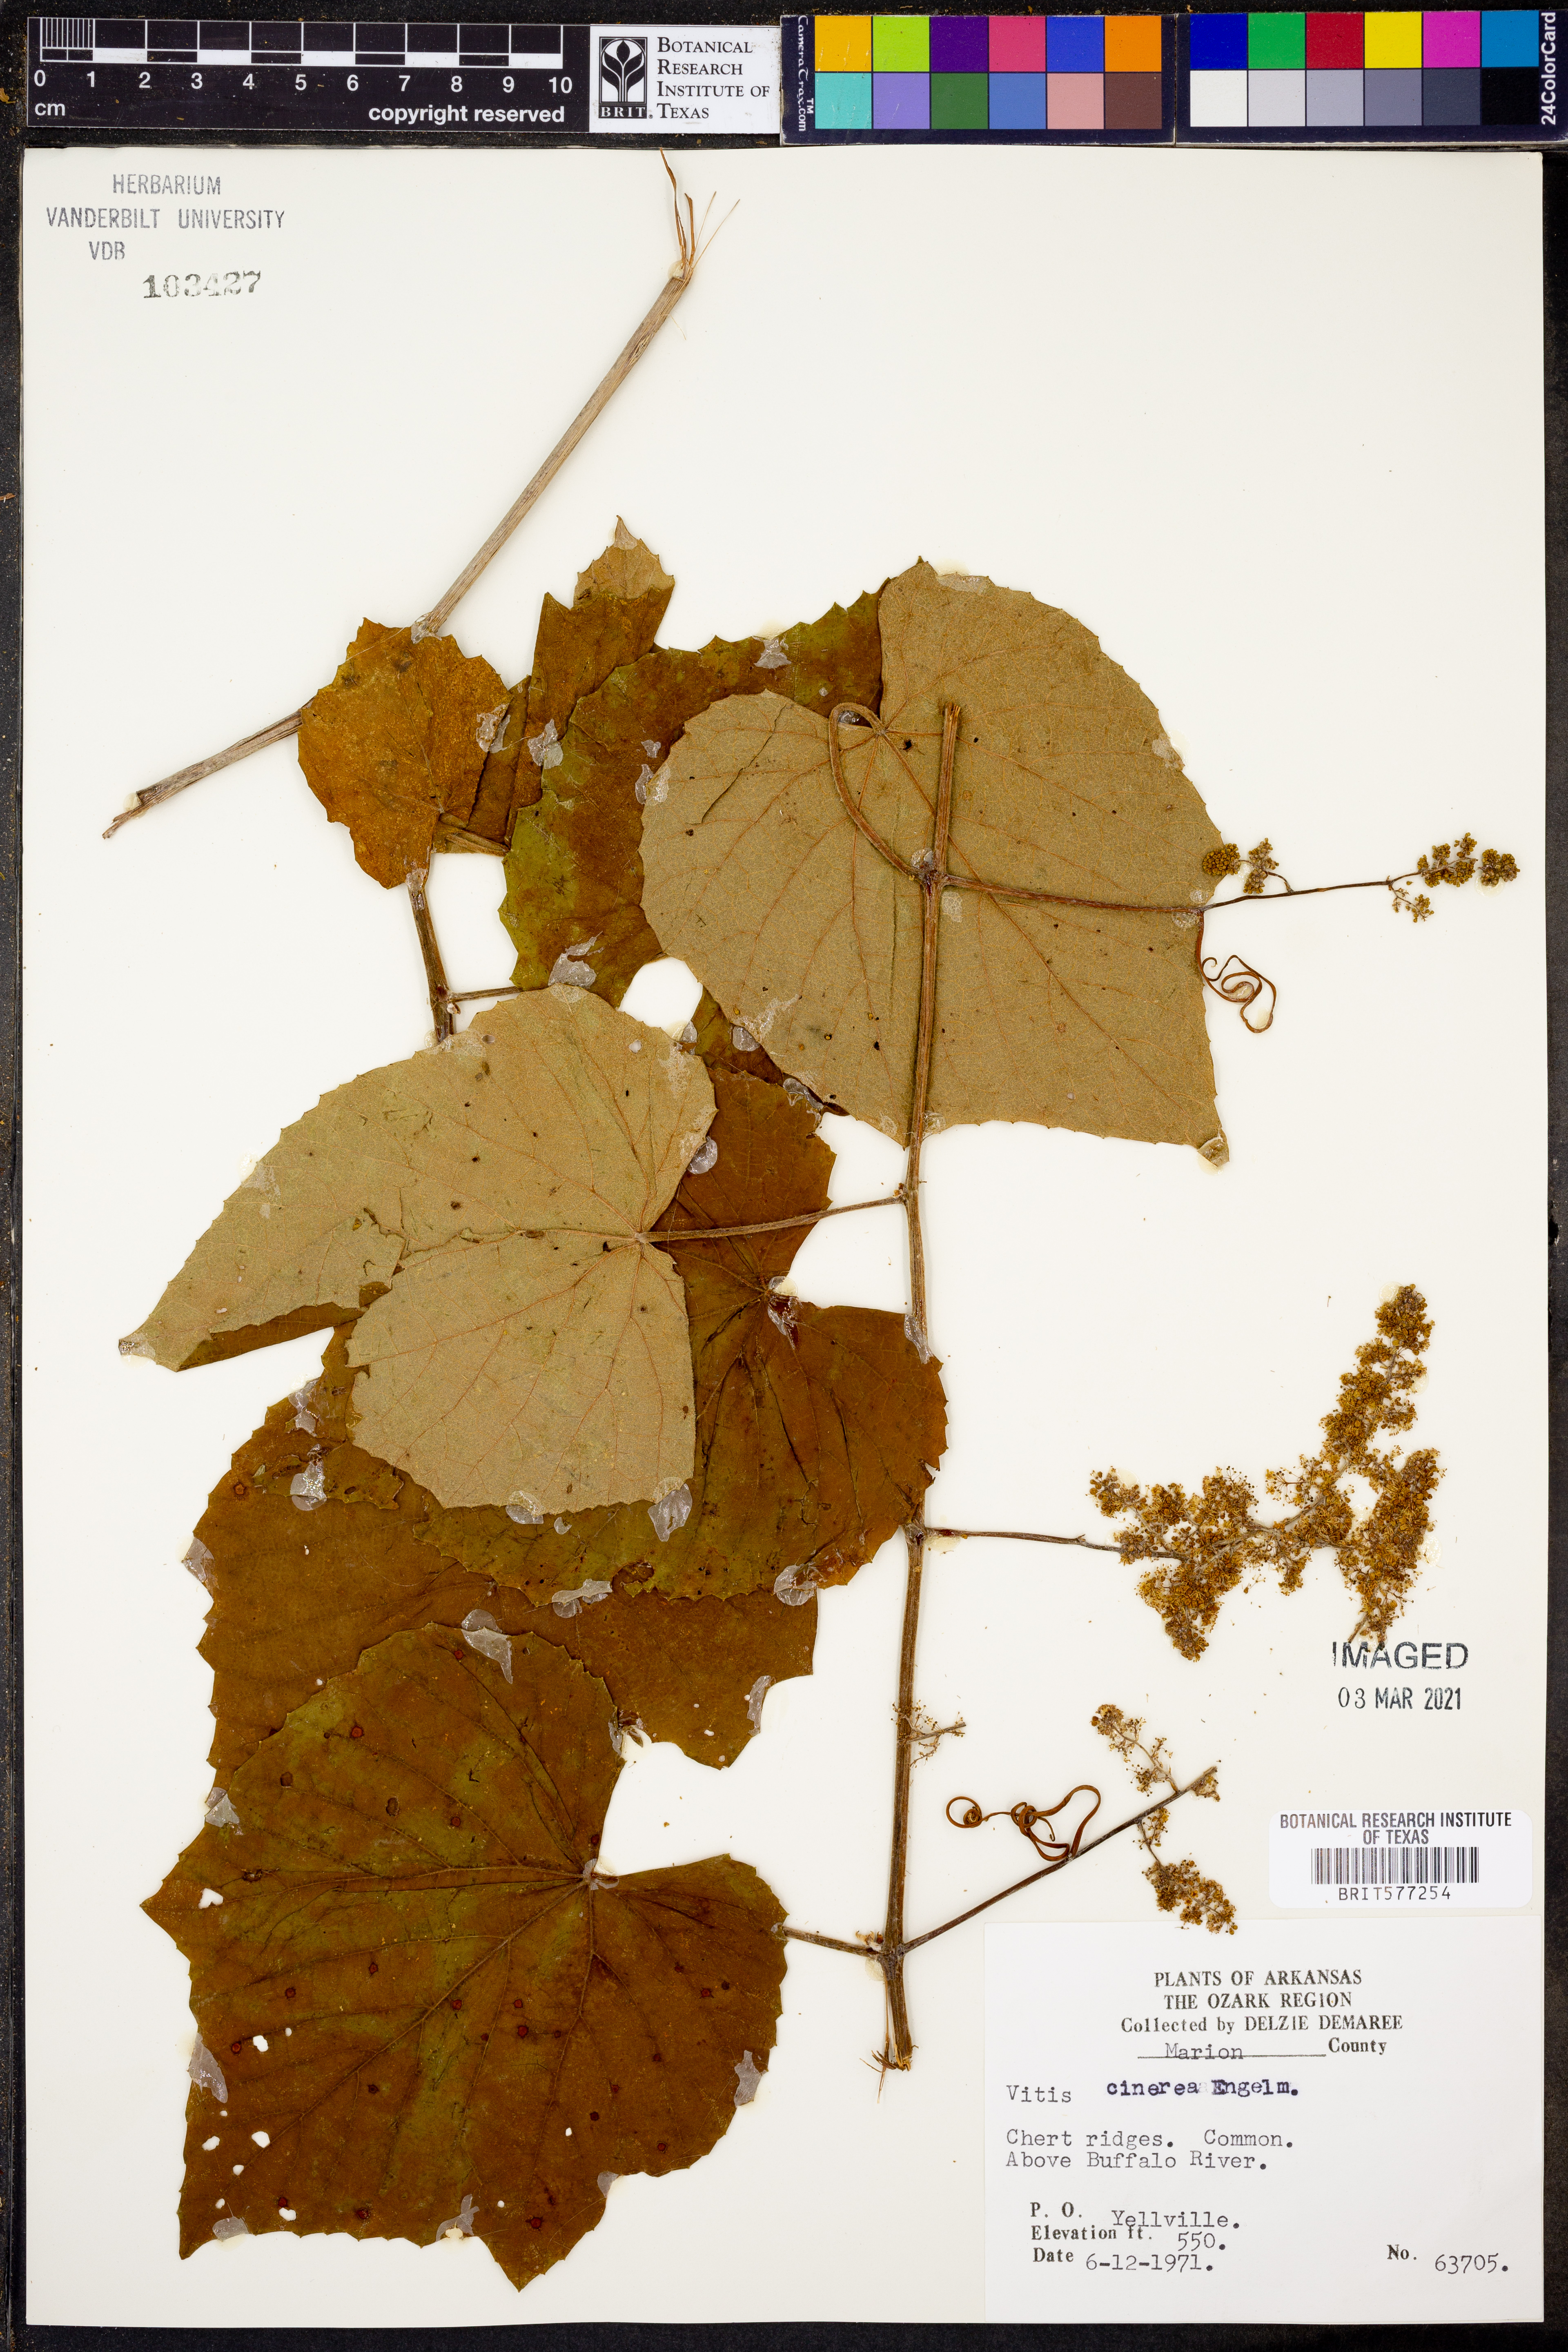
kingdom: Plantae
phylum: Tracheophyta
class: Magnoliopsida
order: Vitales
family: Vitaceae
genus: Vitis
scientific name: Vitis cinerea
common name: Ashy grape
